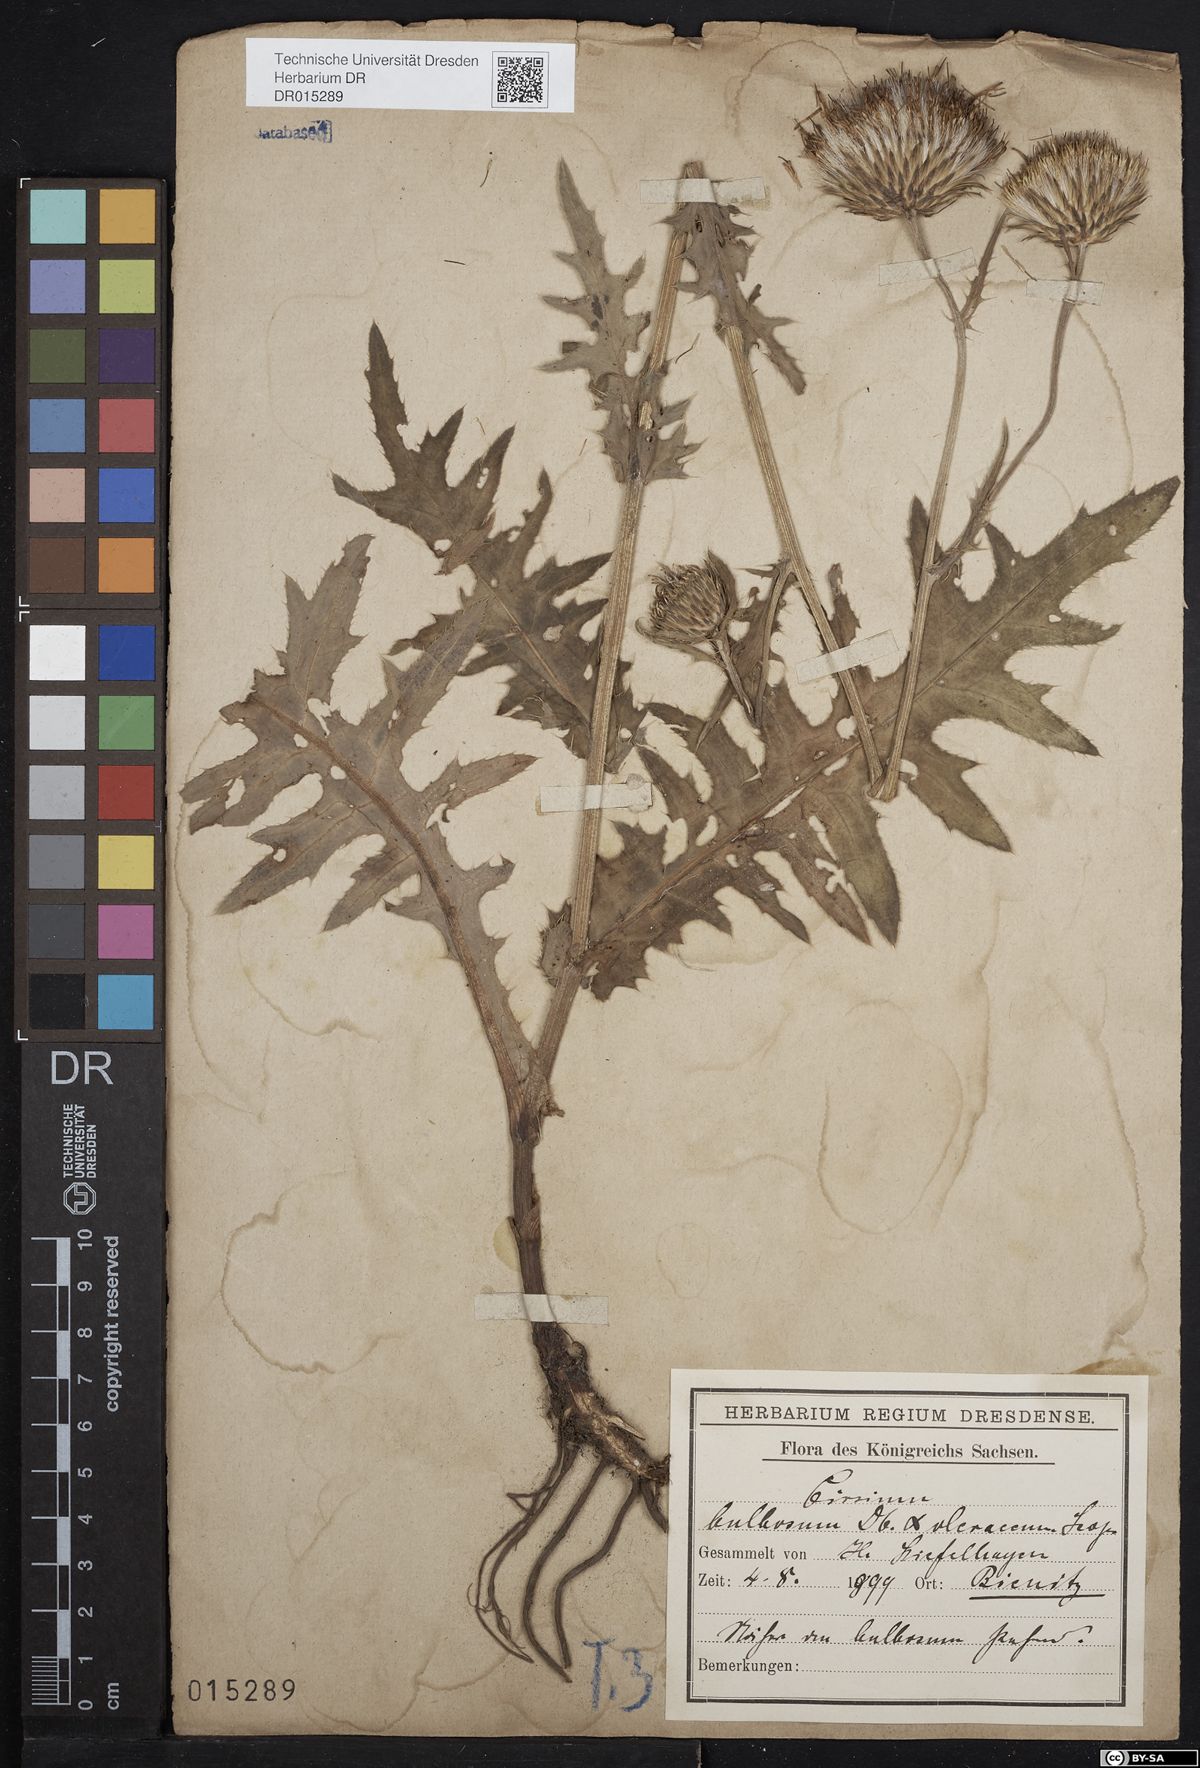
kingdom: Plantae
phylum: Tracheophyta
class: Magnoliopsida
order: Asterales
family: Asteraceae
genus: Cirsium
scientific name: Cirsium lachenalii
